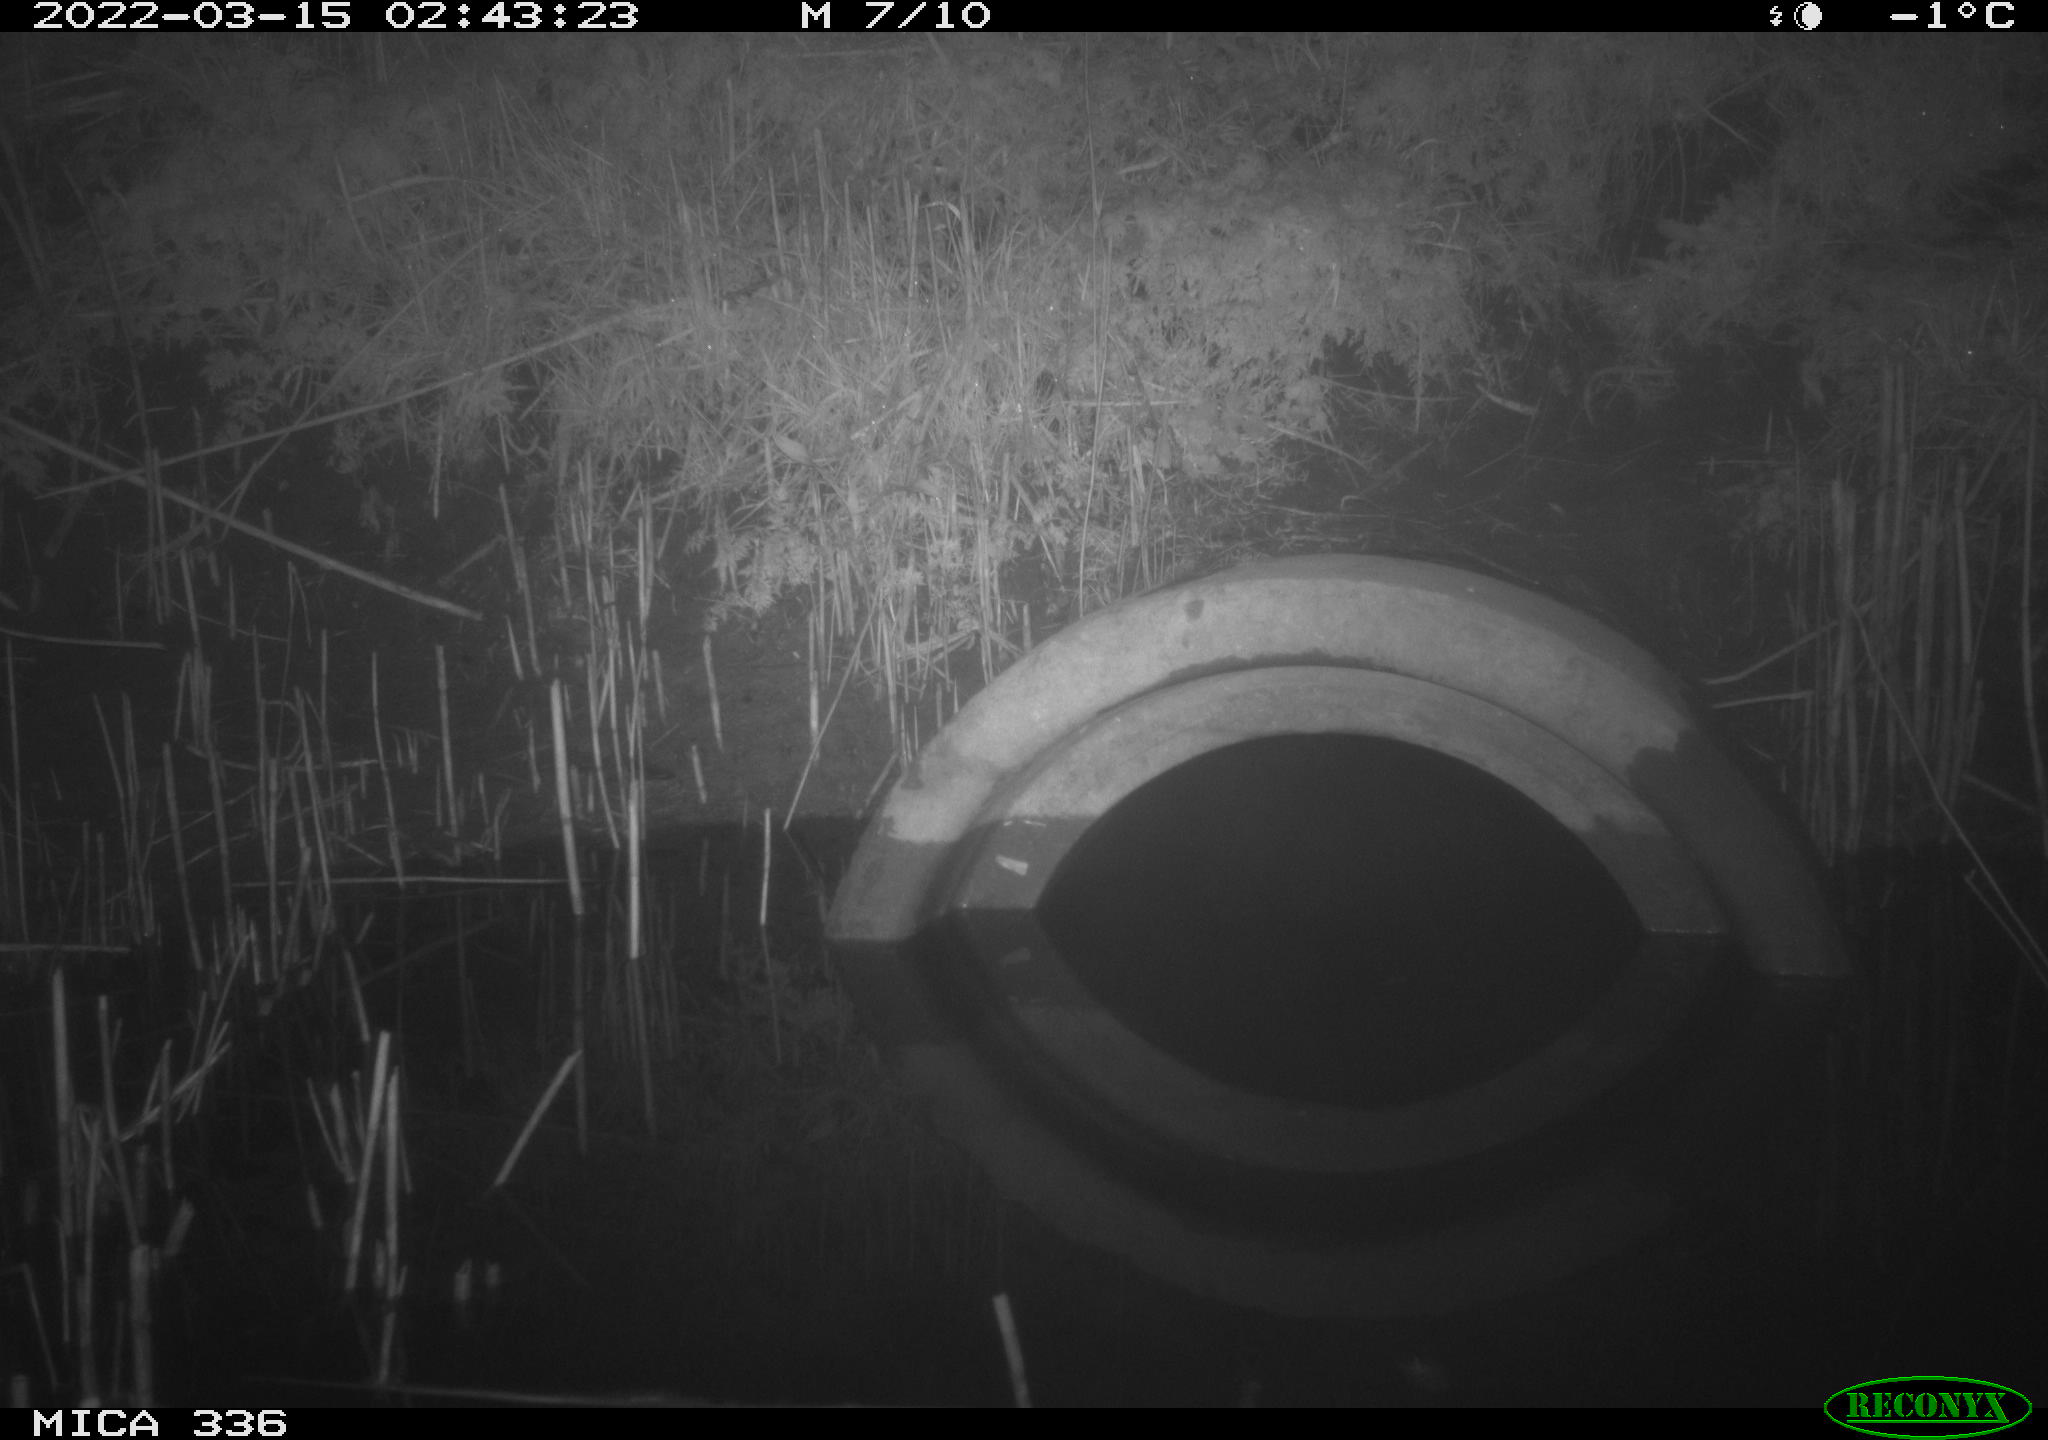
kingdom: Animalia
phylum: Chordata
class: Mammalia
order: Rodentia
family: Muridae
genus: Rattus
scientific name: Rattus norvegicus
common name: Brown rat
